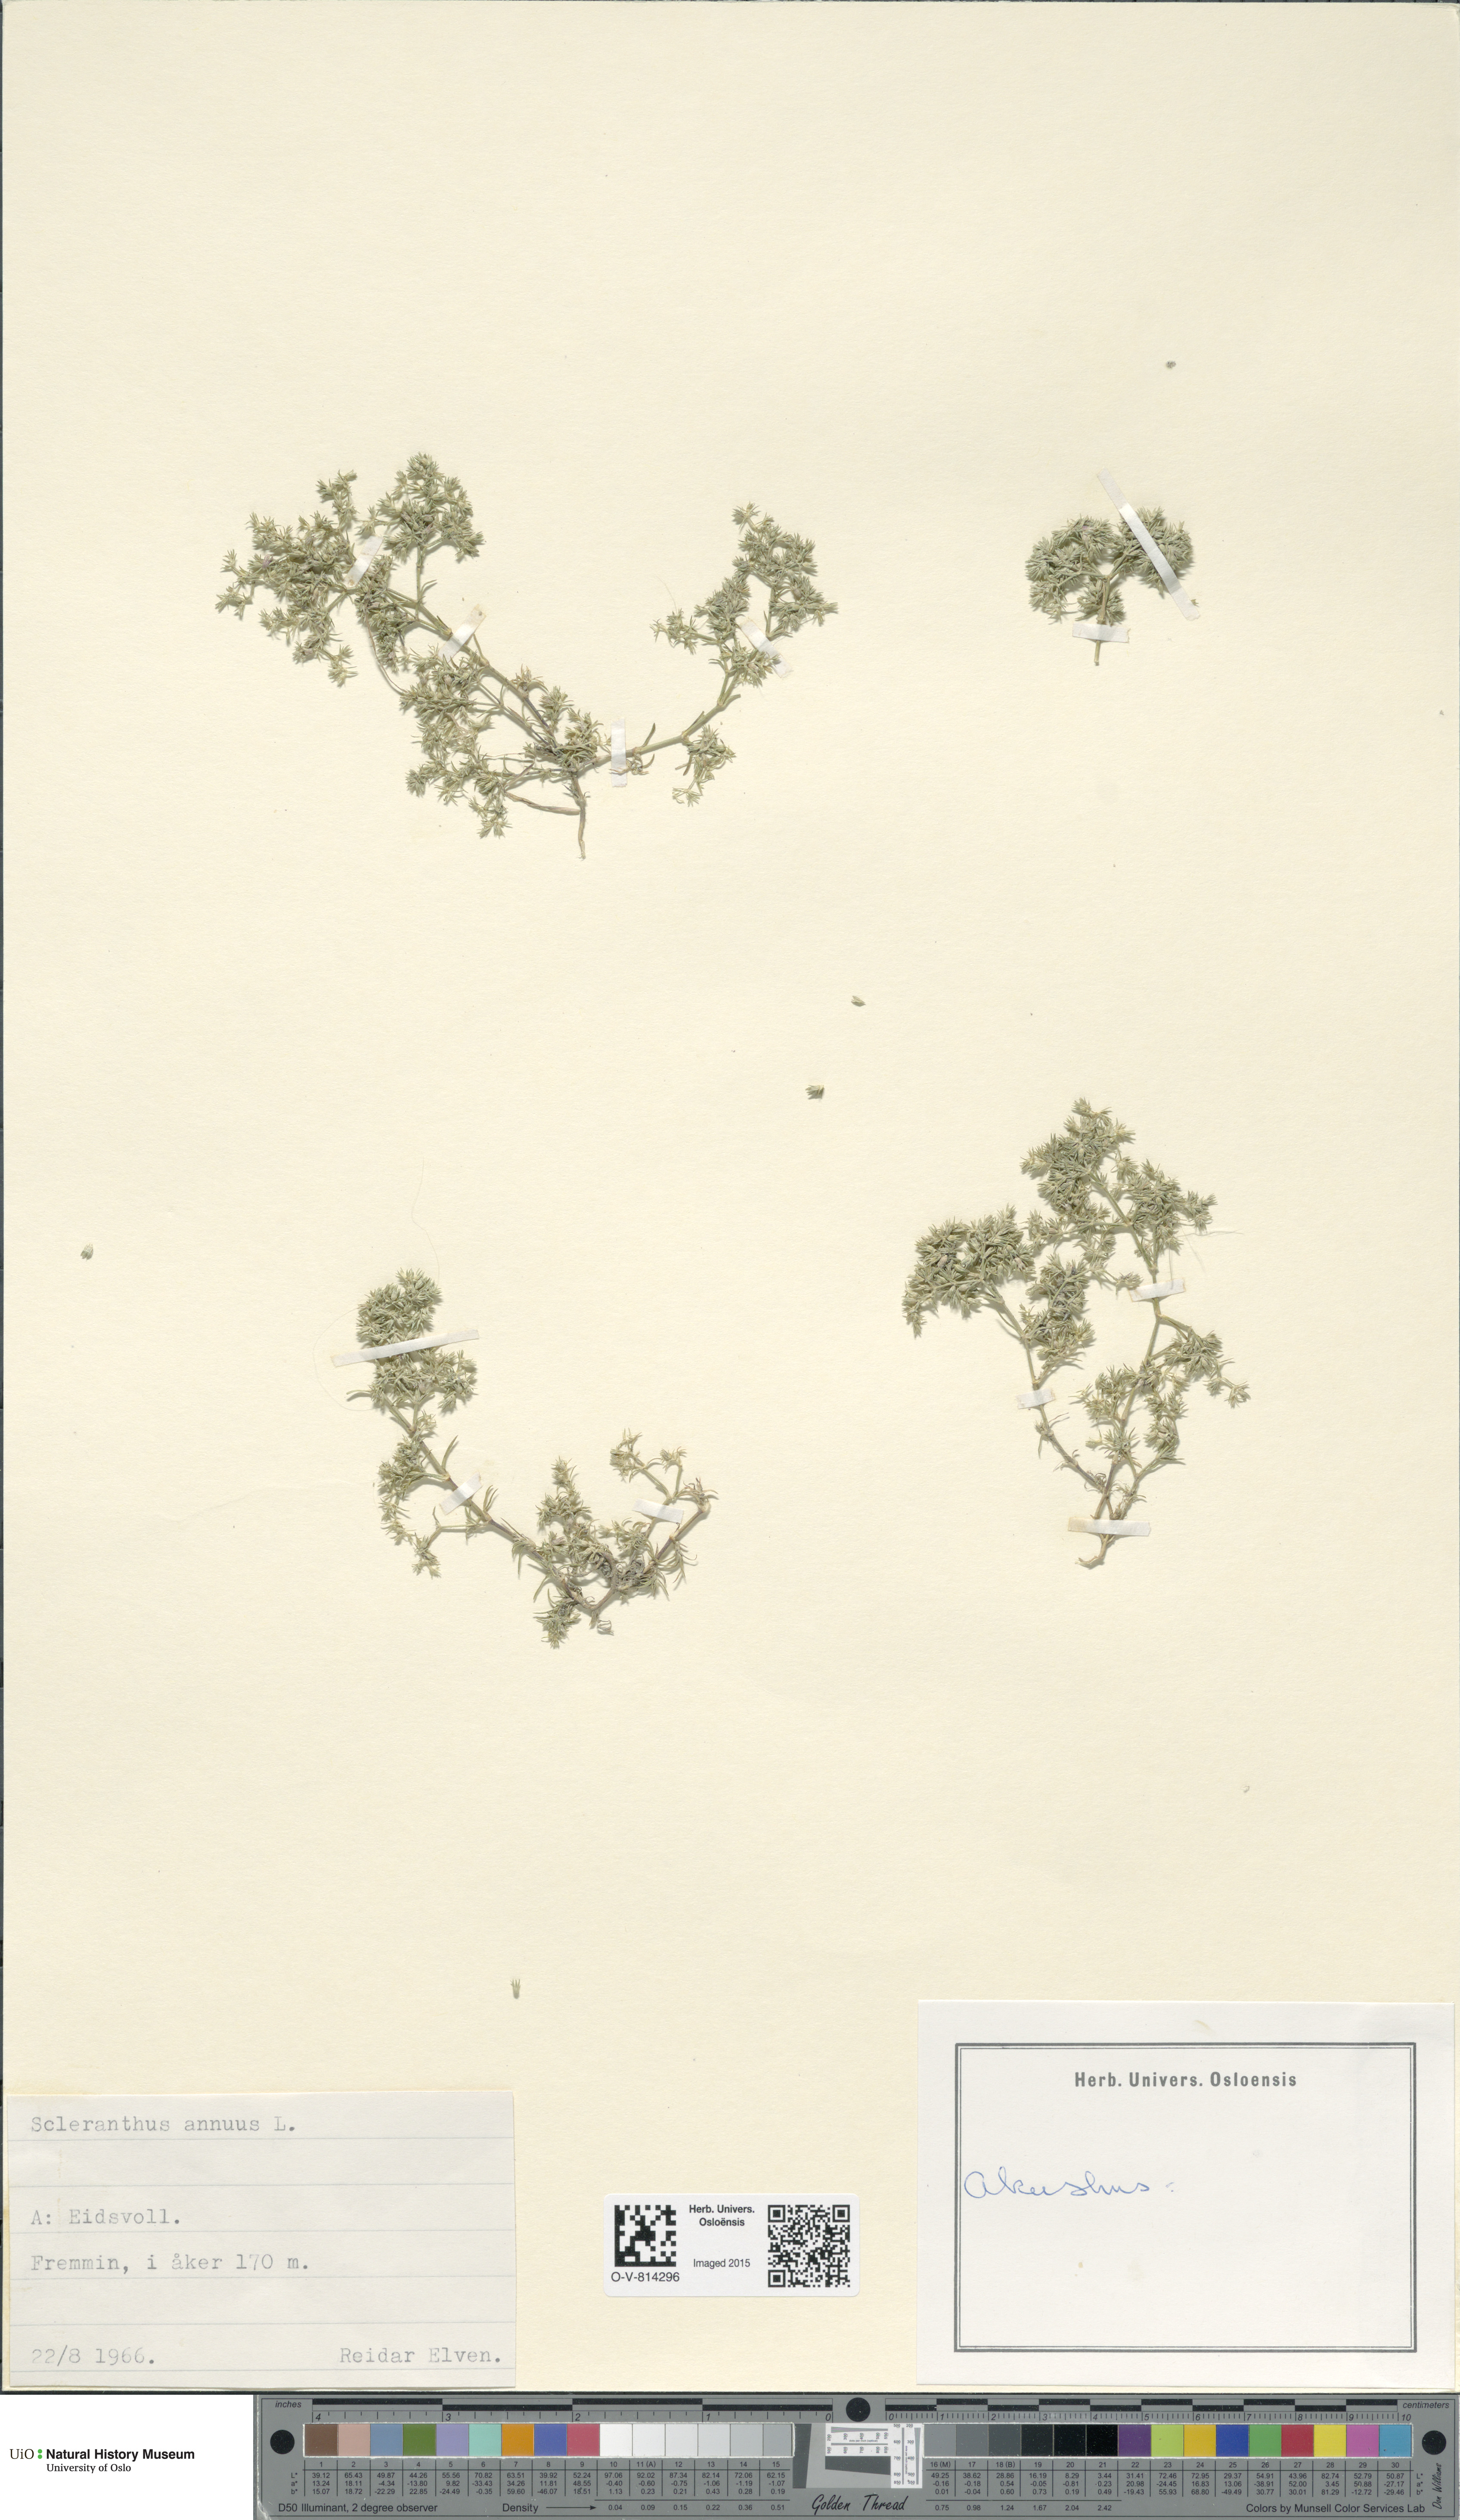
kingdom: Plantae
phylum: Tracheophyta
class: Magnoliopsida
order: Caryophyllales
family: Caryophyllaceae
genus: Scleranthus
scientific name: Scleranthus annuus
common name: Annual knawel
